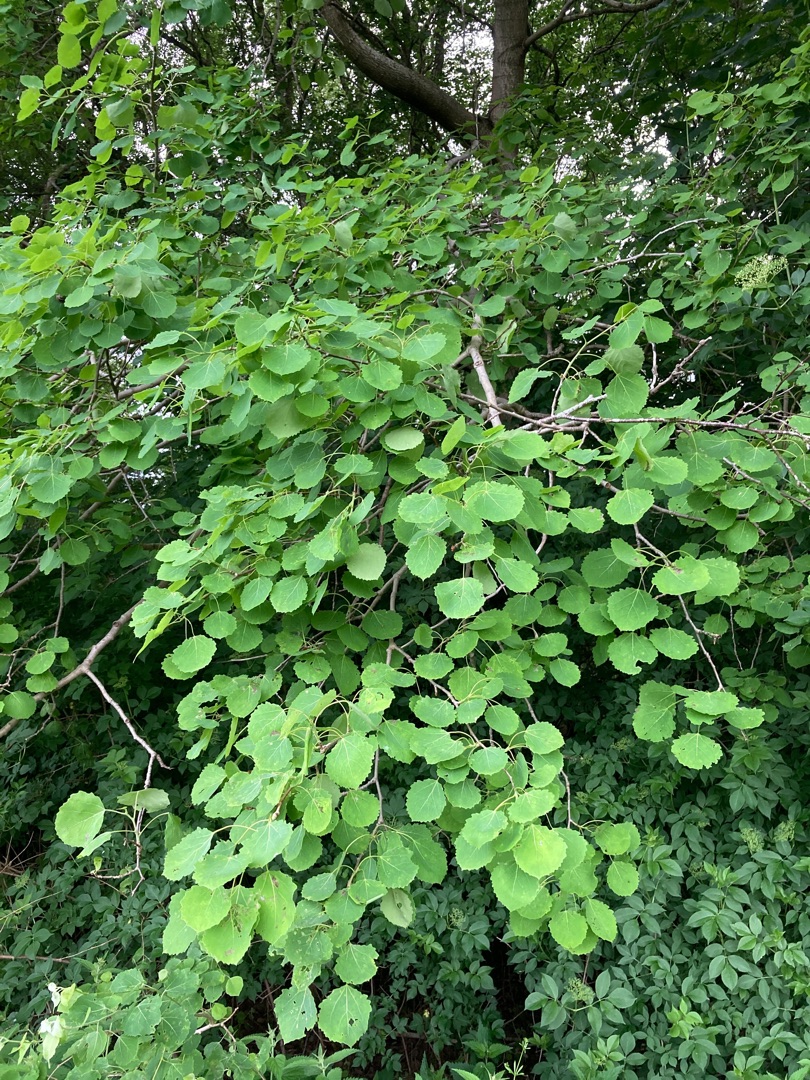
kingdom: Plantae
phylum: Tracheophyta
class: Magnoliopsida
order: Malpighiales
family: Salicaceae
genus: Populus
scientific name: Populus tremula
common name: Bævreasp
